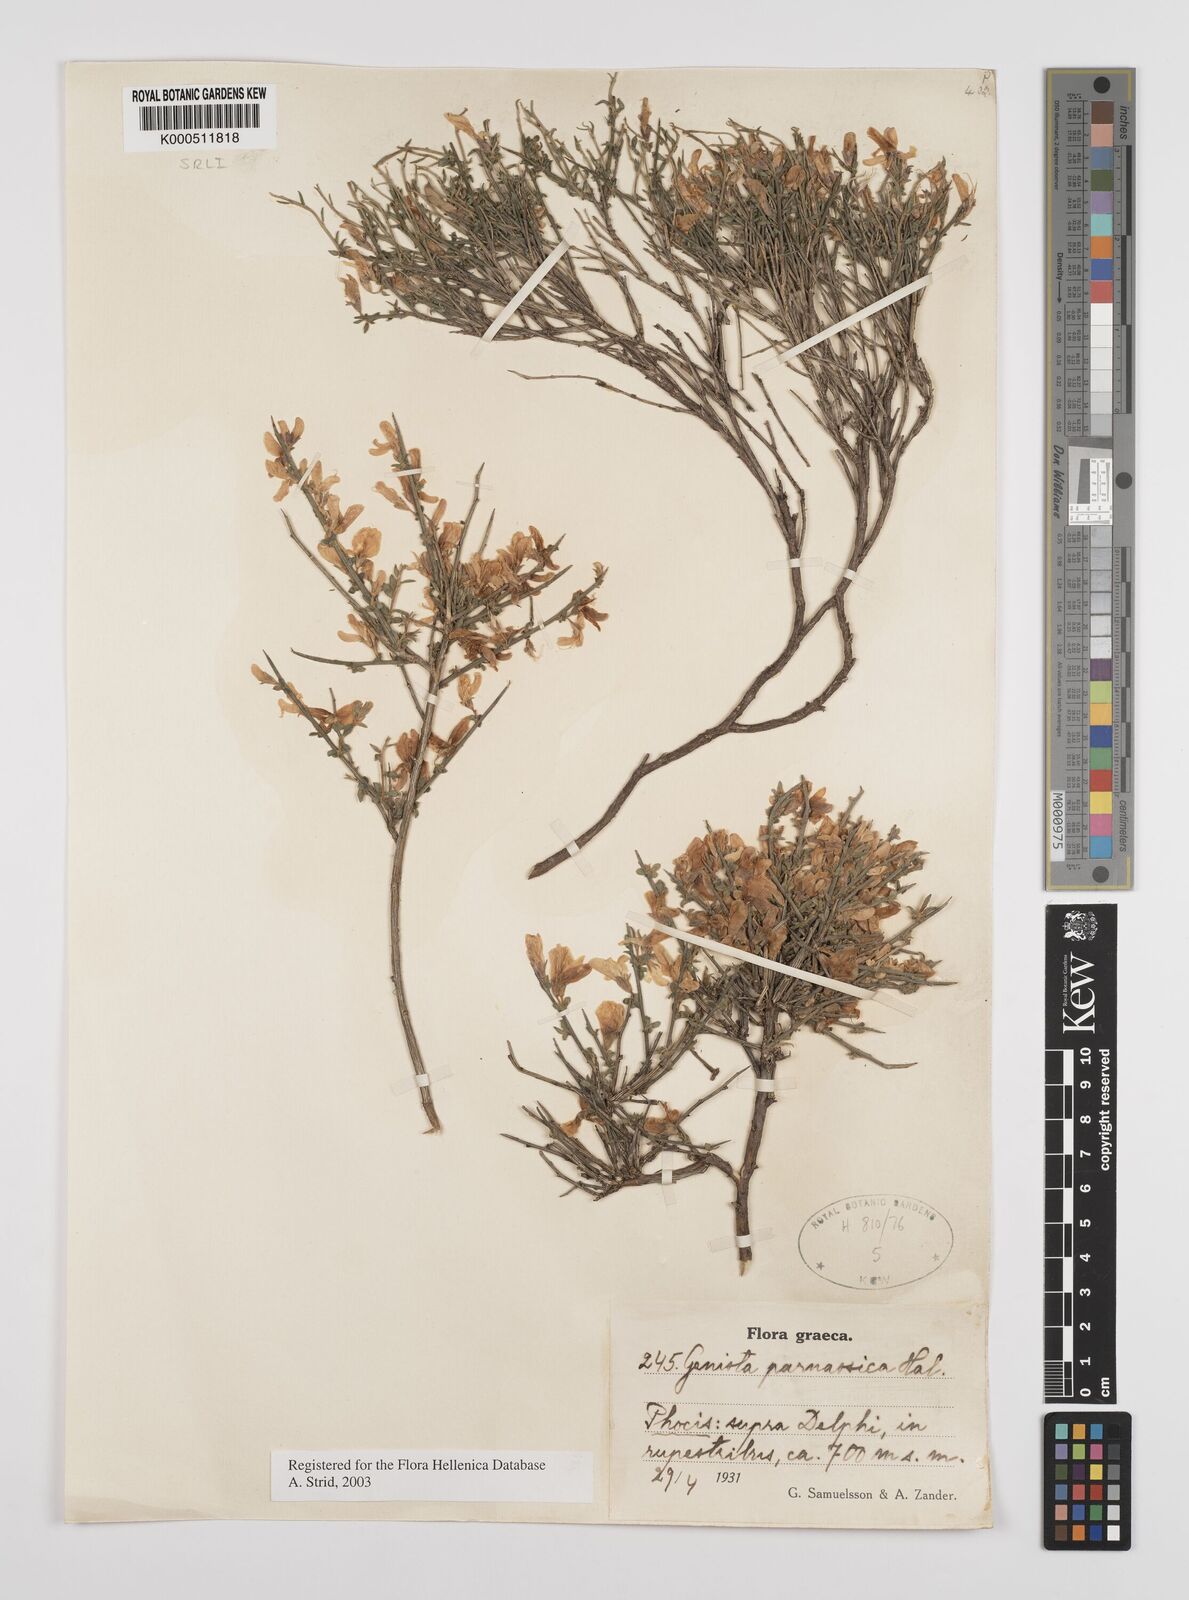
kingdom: Plantae
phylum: Tracheophyta
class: Magnoliopsida
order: Fabales
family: Fabaceae
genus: Genista
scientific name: Genista parnassica
